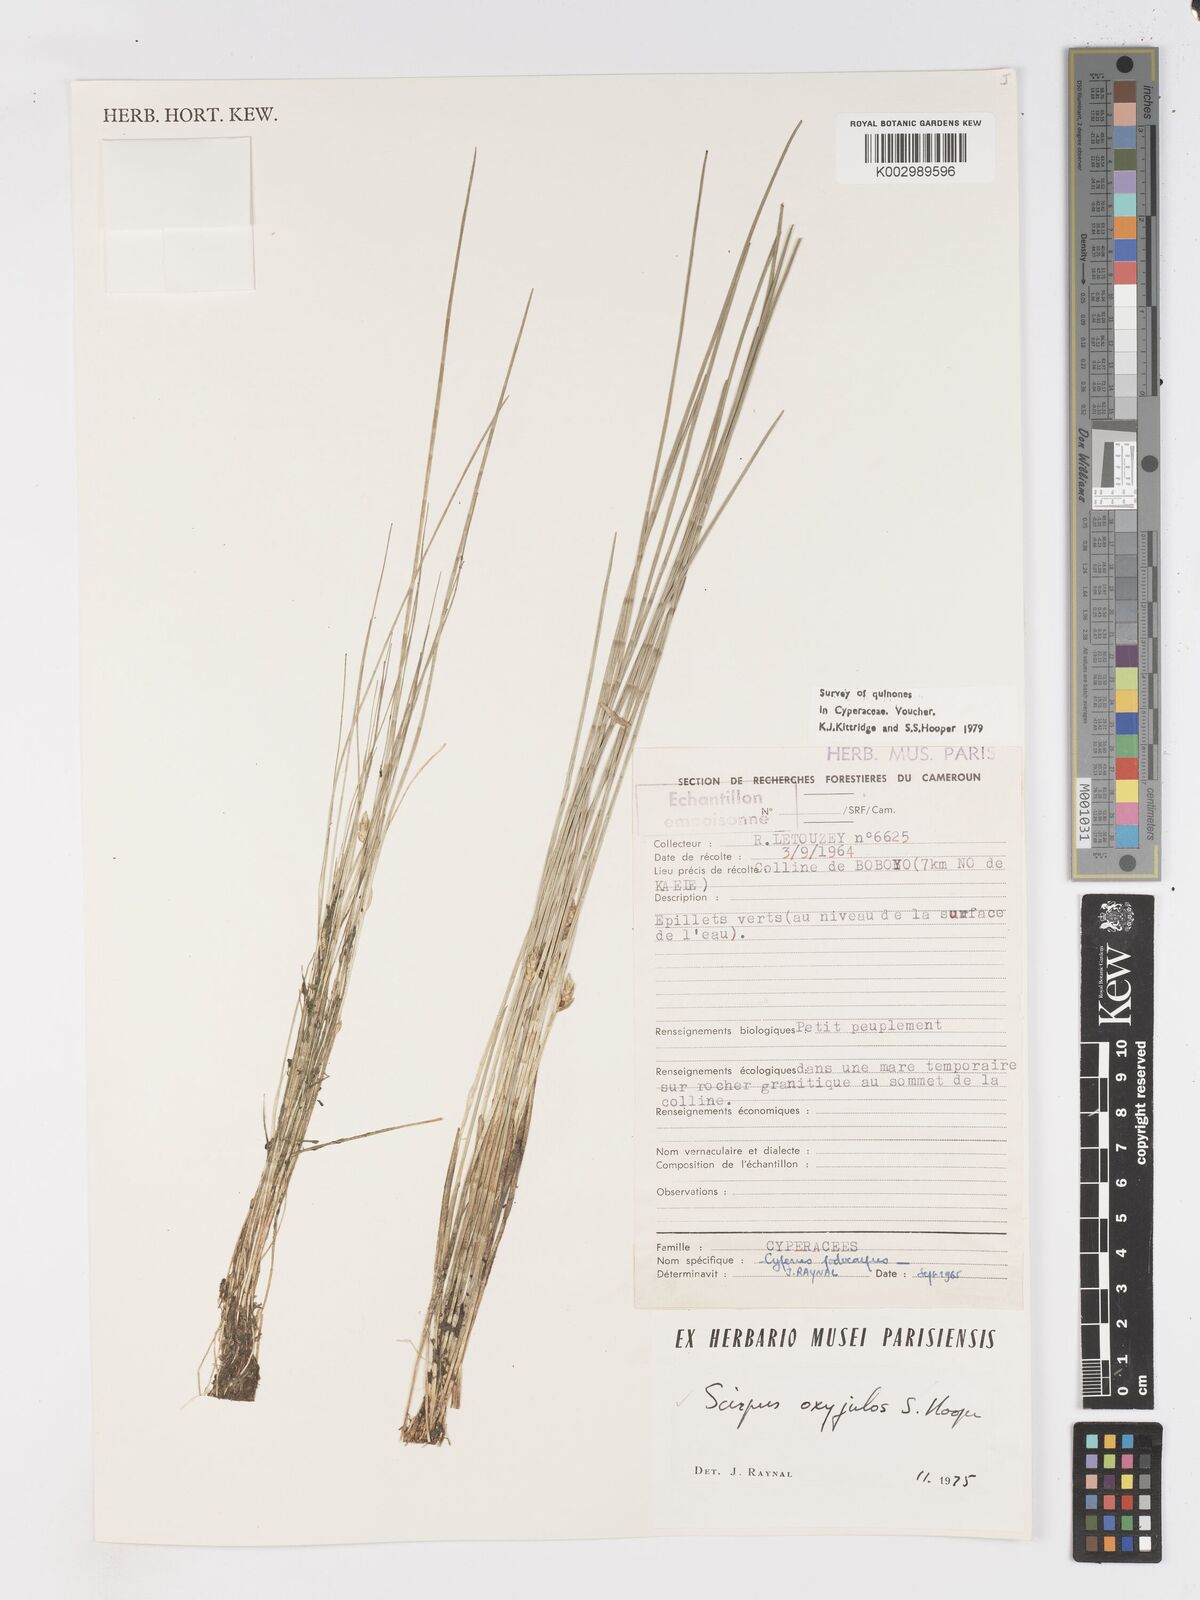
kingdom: Plantae
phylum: Tracheophyta
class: Liliopsida
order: Poales
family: Cyperaceae
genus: Schoenoplectiella
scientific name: Schoenoplectiella oxyjulos
